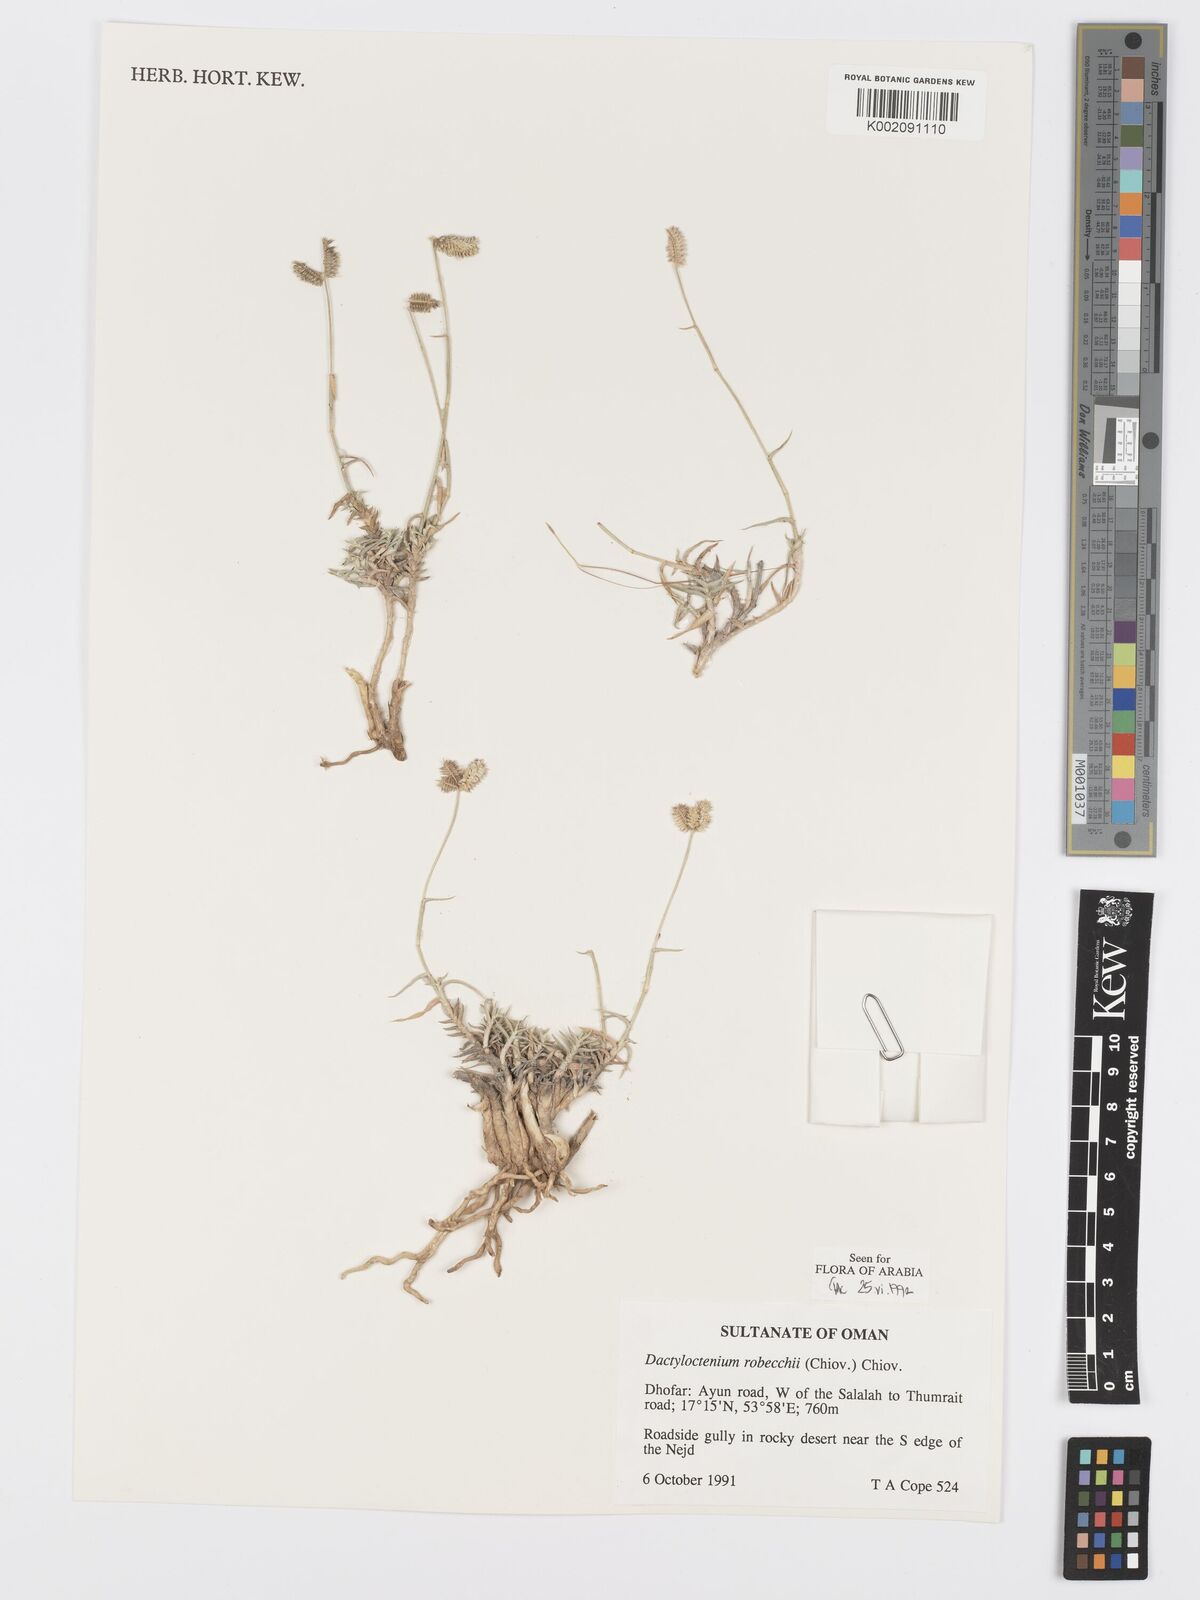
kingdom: Plantae
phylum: Tracheophyta
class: Liliopsida
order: Poales
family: Poaceae
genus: Dactyloctenium
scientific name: Dactyloctenium robecchii
